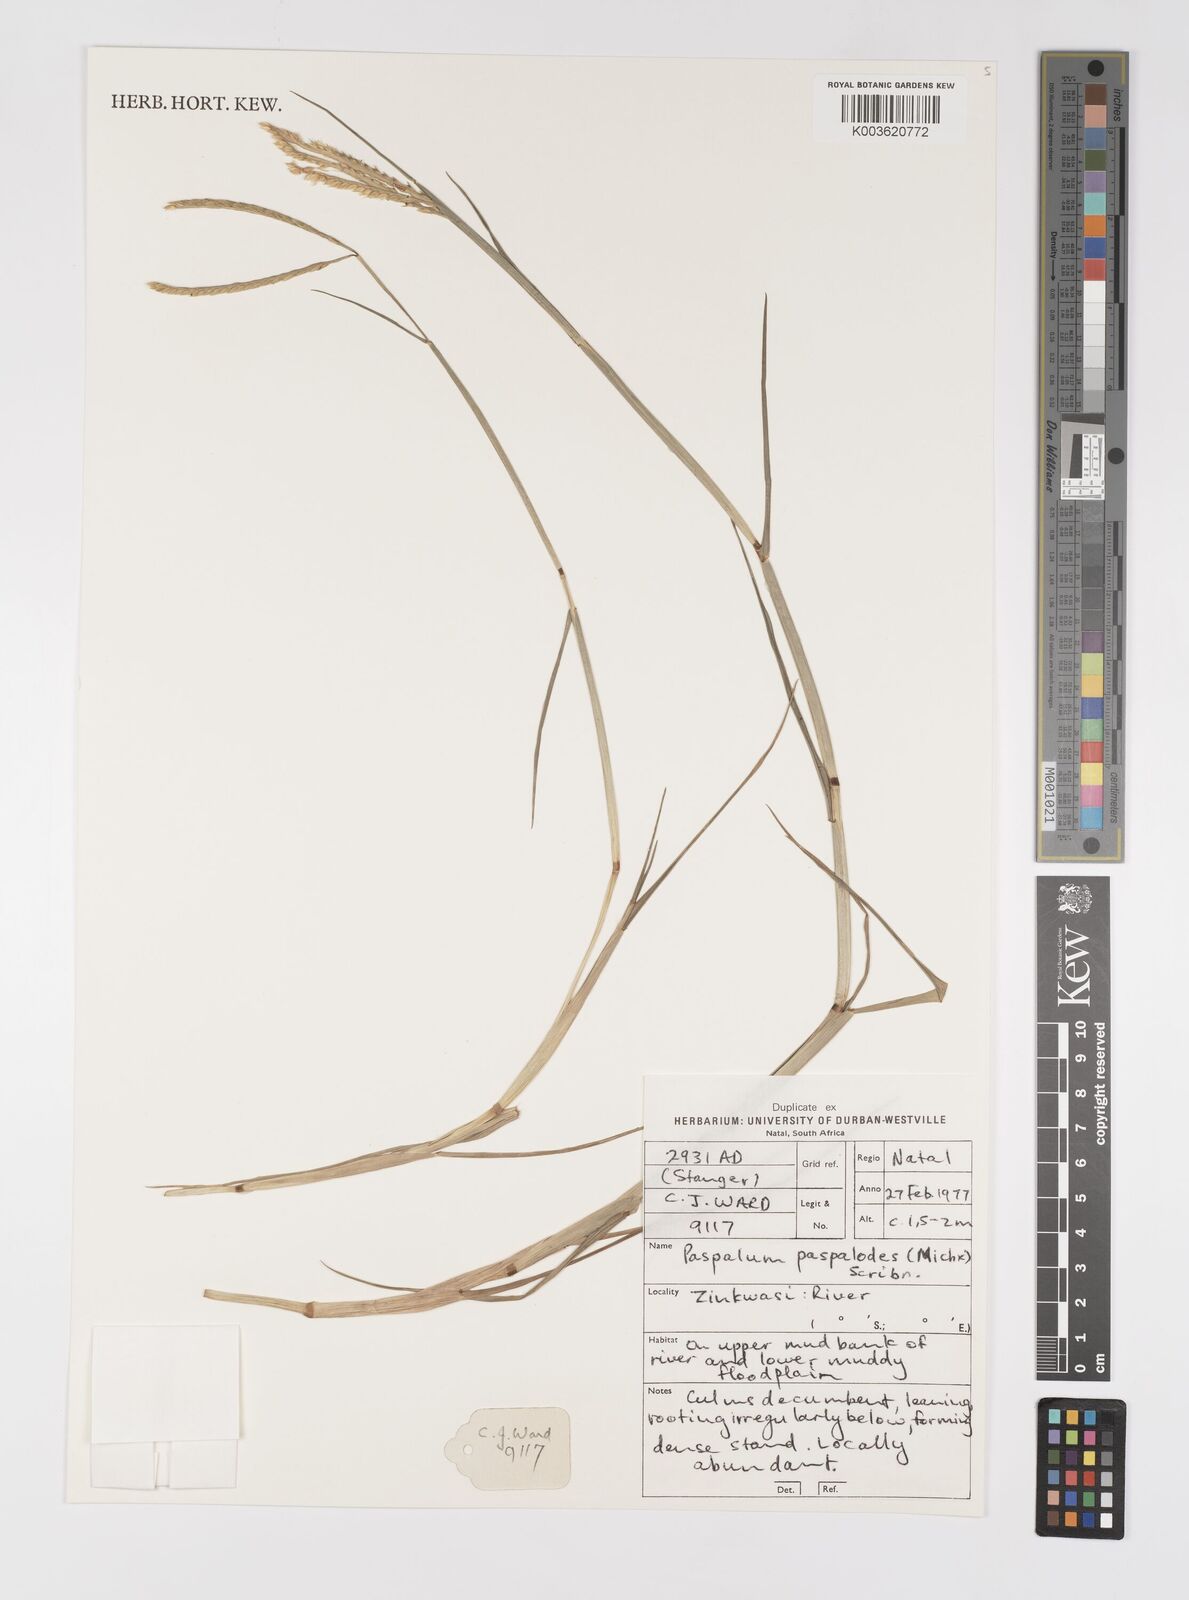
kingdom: Plantae
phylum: Tracheophyta
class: Liliopsida
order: Poales
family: Poaceae
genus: Paspalum
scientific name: Paspalum vaginatum
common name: Seashore paspalum
